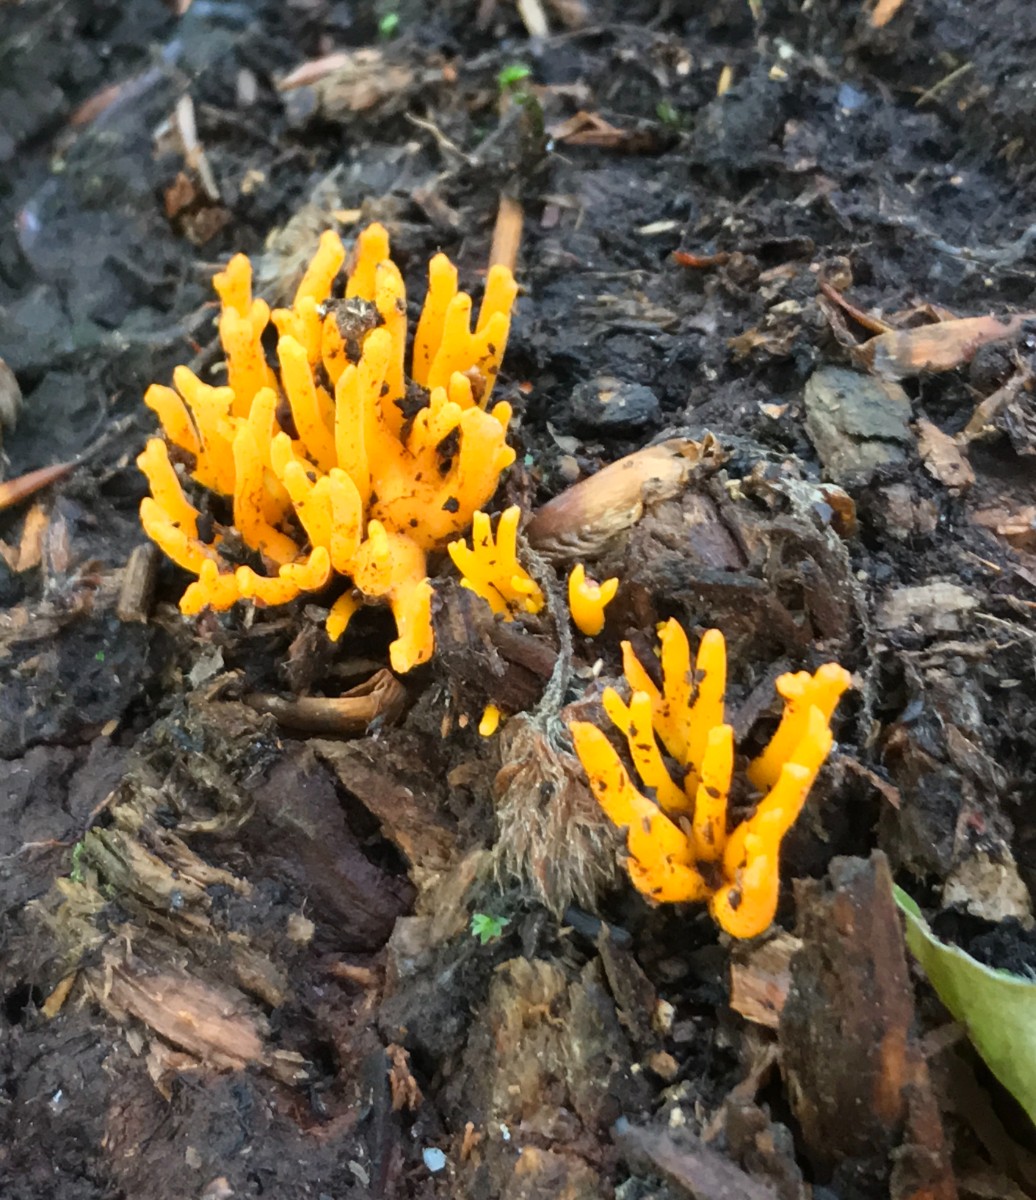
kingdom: Fungi
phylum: Basidiomycota
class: Dacrymycetes
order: Dacrymycetales
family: Dacrymycetaceae
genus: Calocera
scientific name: Calocera viscosa
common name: almindelig guldgaffel
